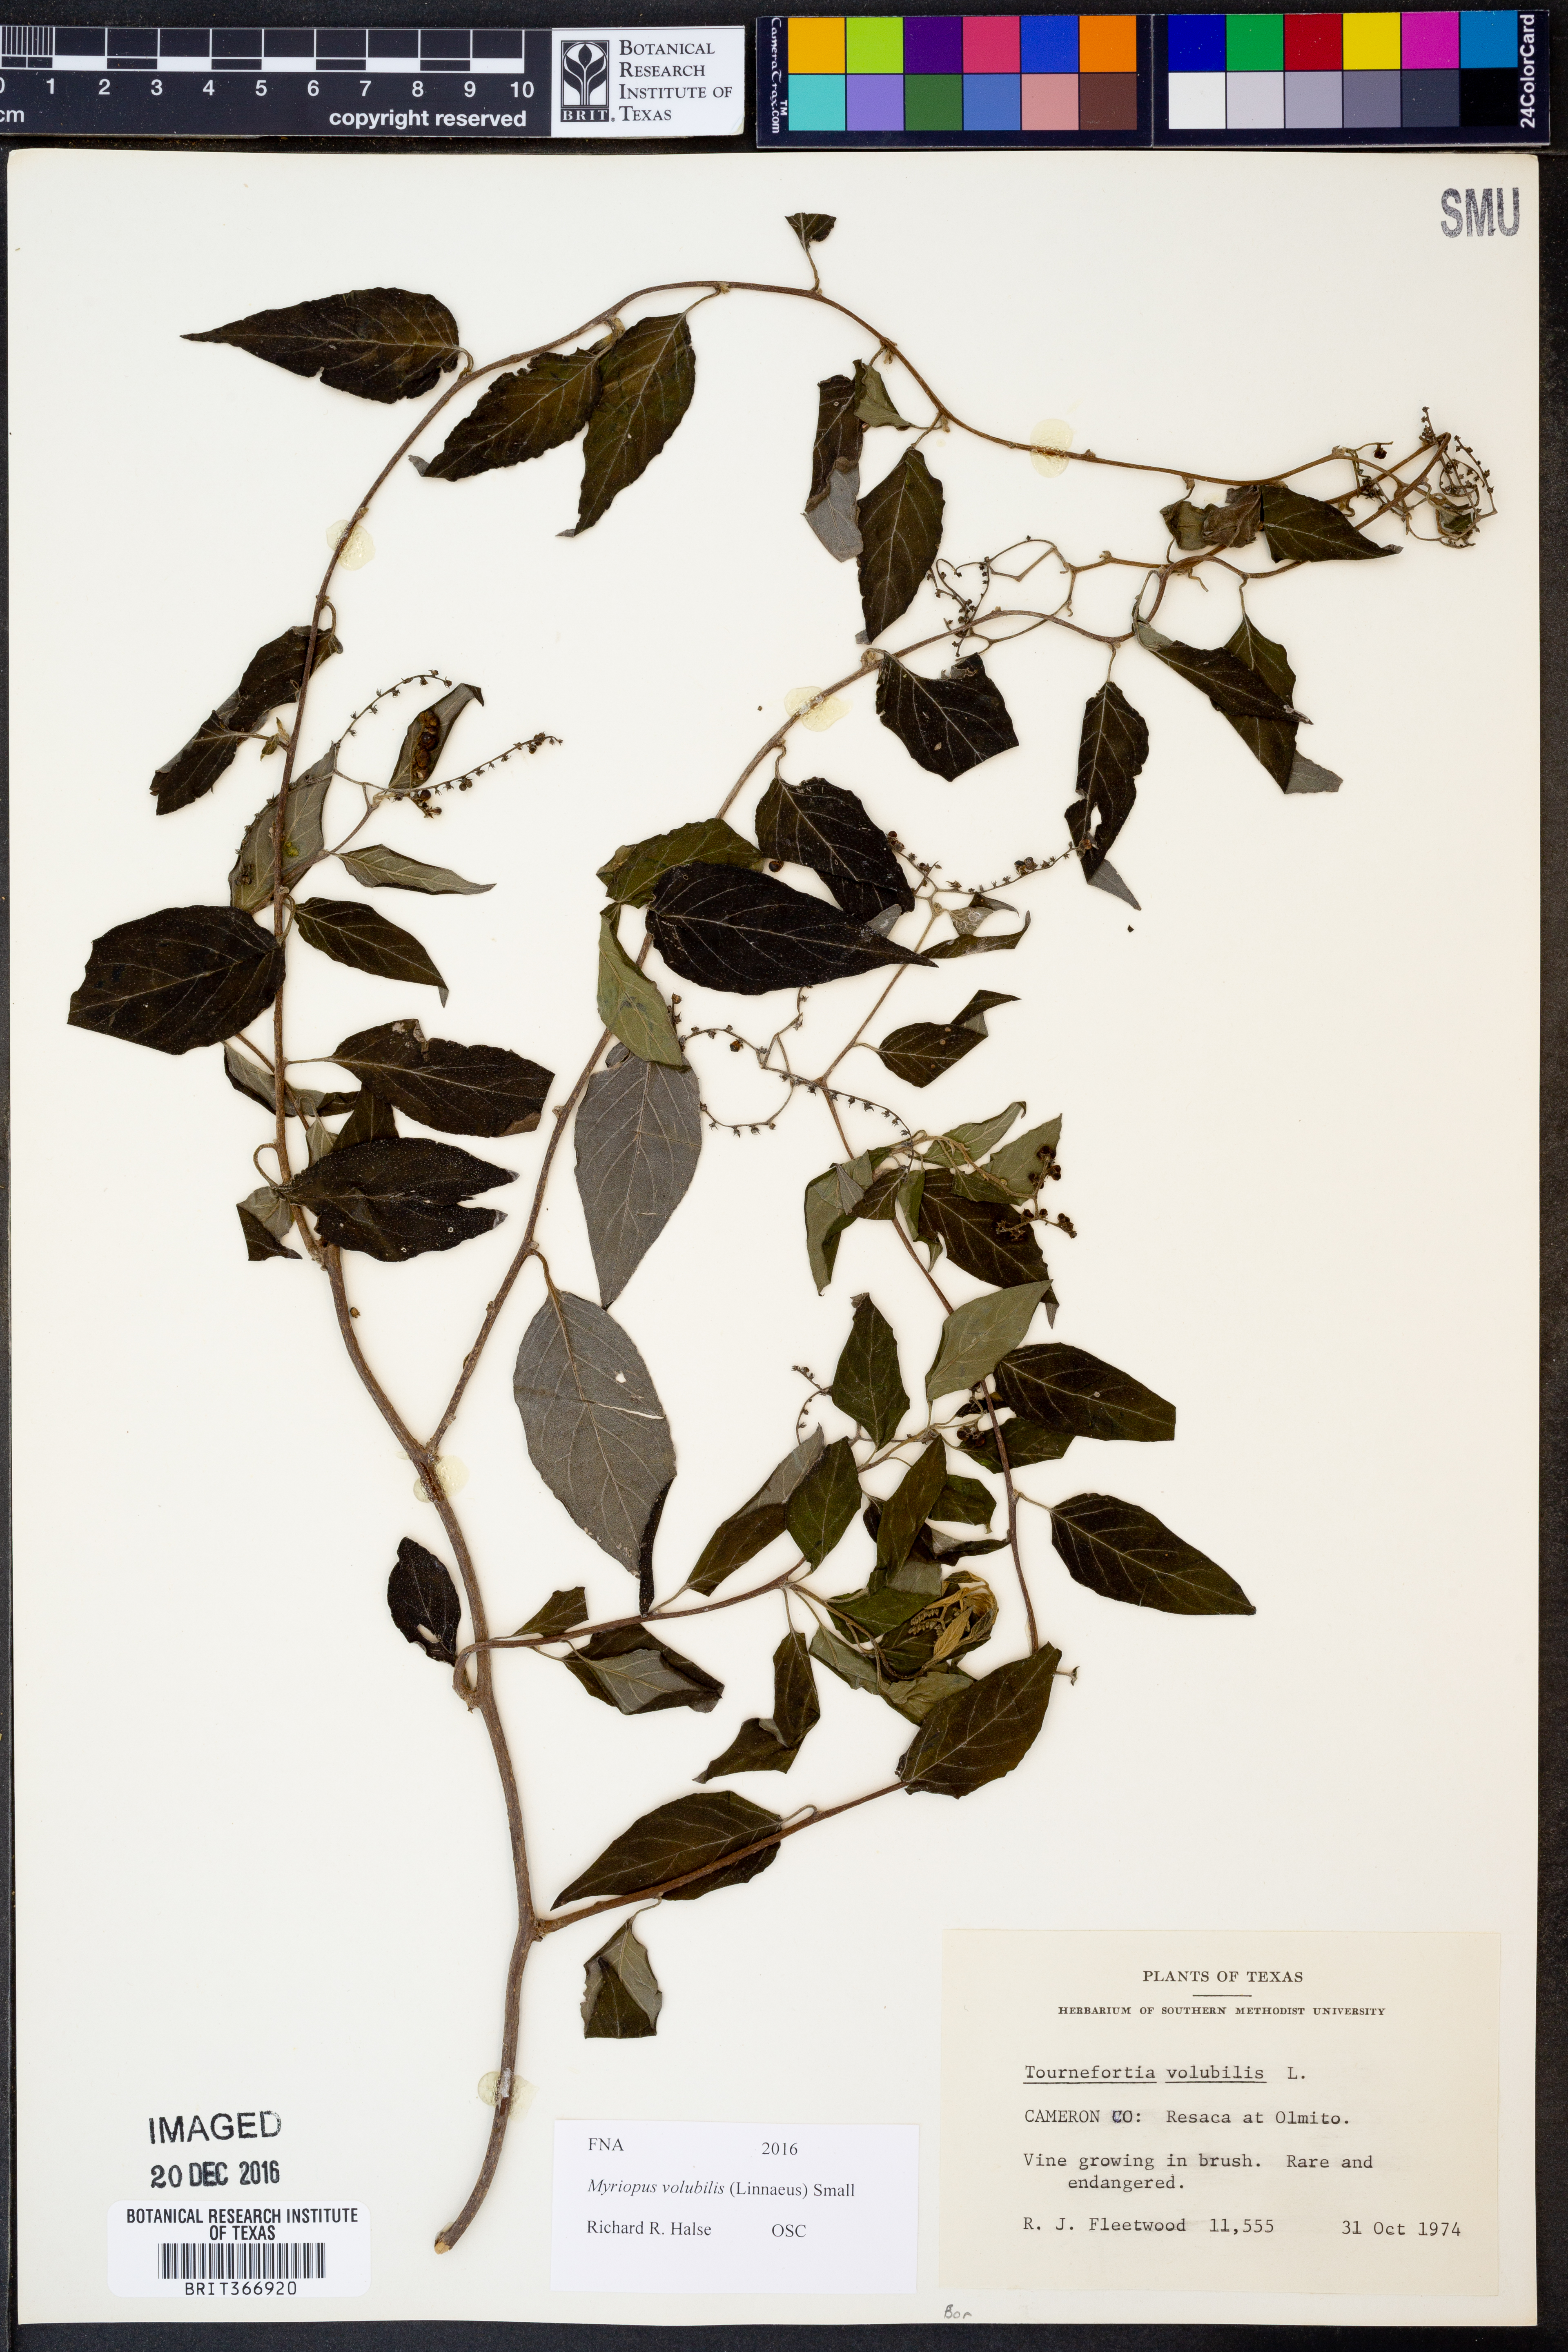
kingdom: Plantae
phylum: Tracheophyta
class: Magnoliopsida
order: Boraginales
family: Heliotropiaceae
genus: Myriopus
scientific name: Myriopus volubilis
